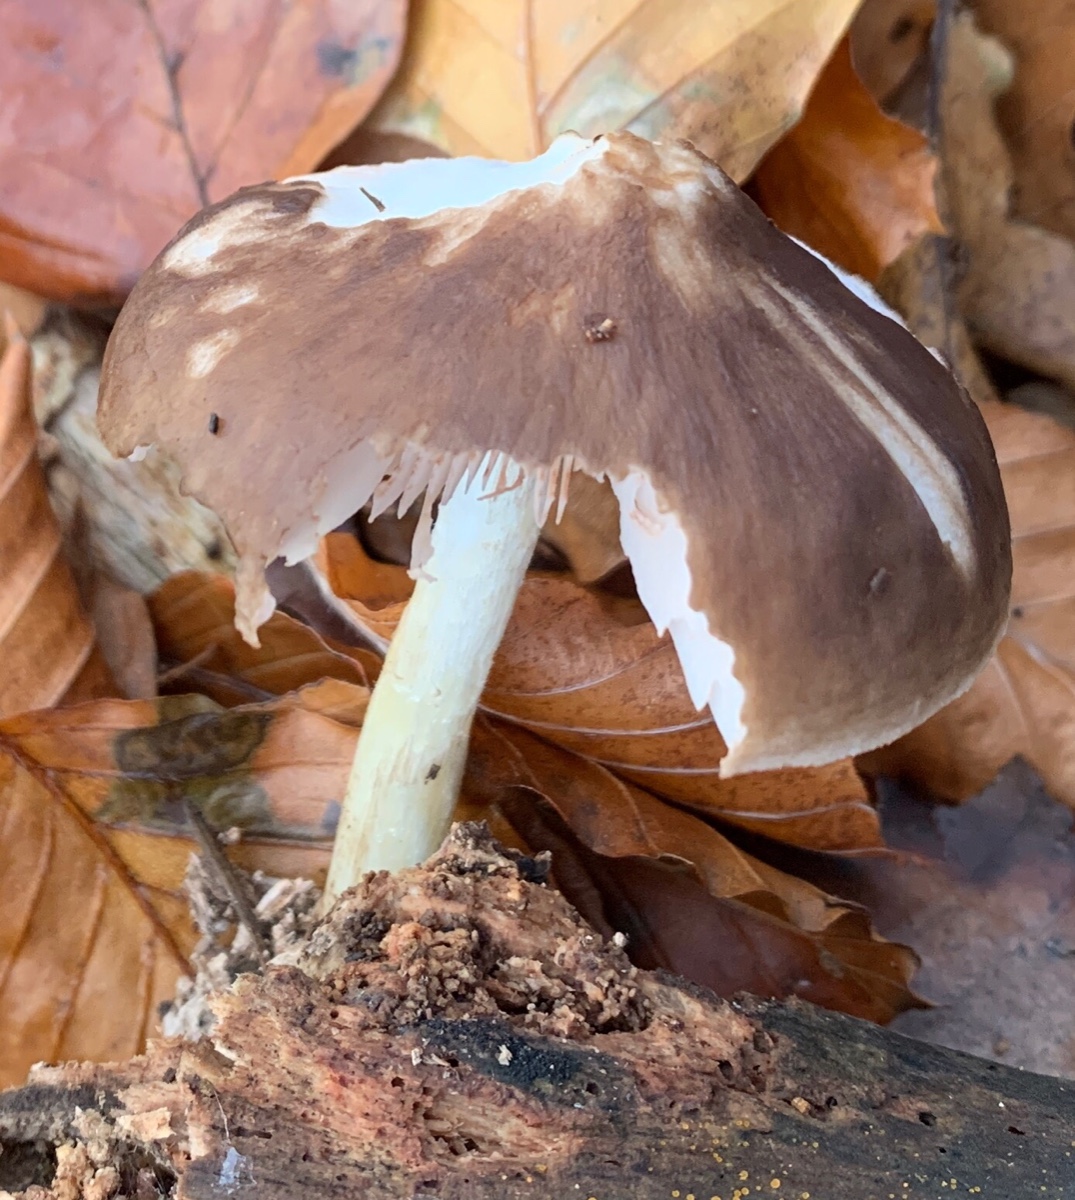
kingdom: Fungi
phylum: Basidiomycota
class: Agaricomycetes
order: Agaricales
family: Pluteaceae
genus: Pluteus
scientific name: Pluteus cervinus
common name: sodfarvet skærmhat
